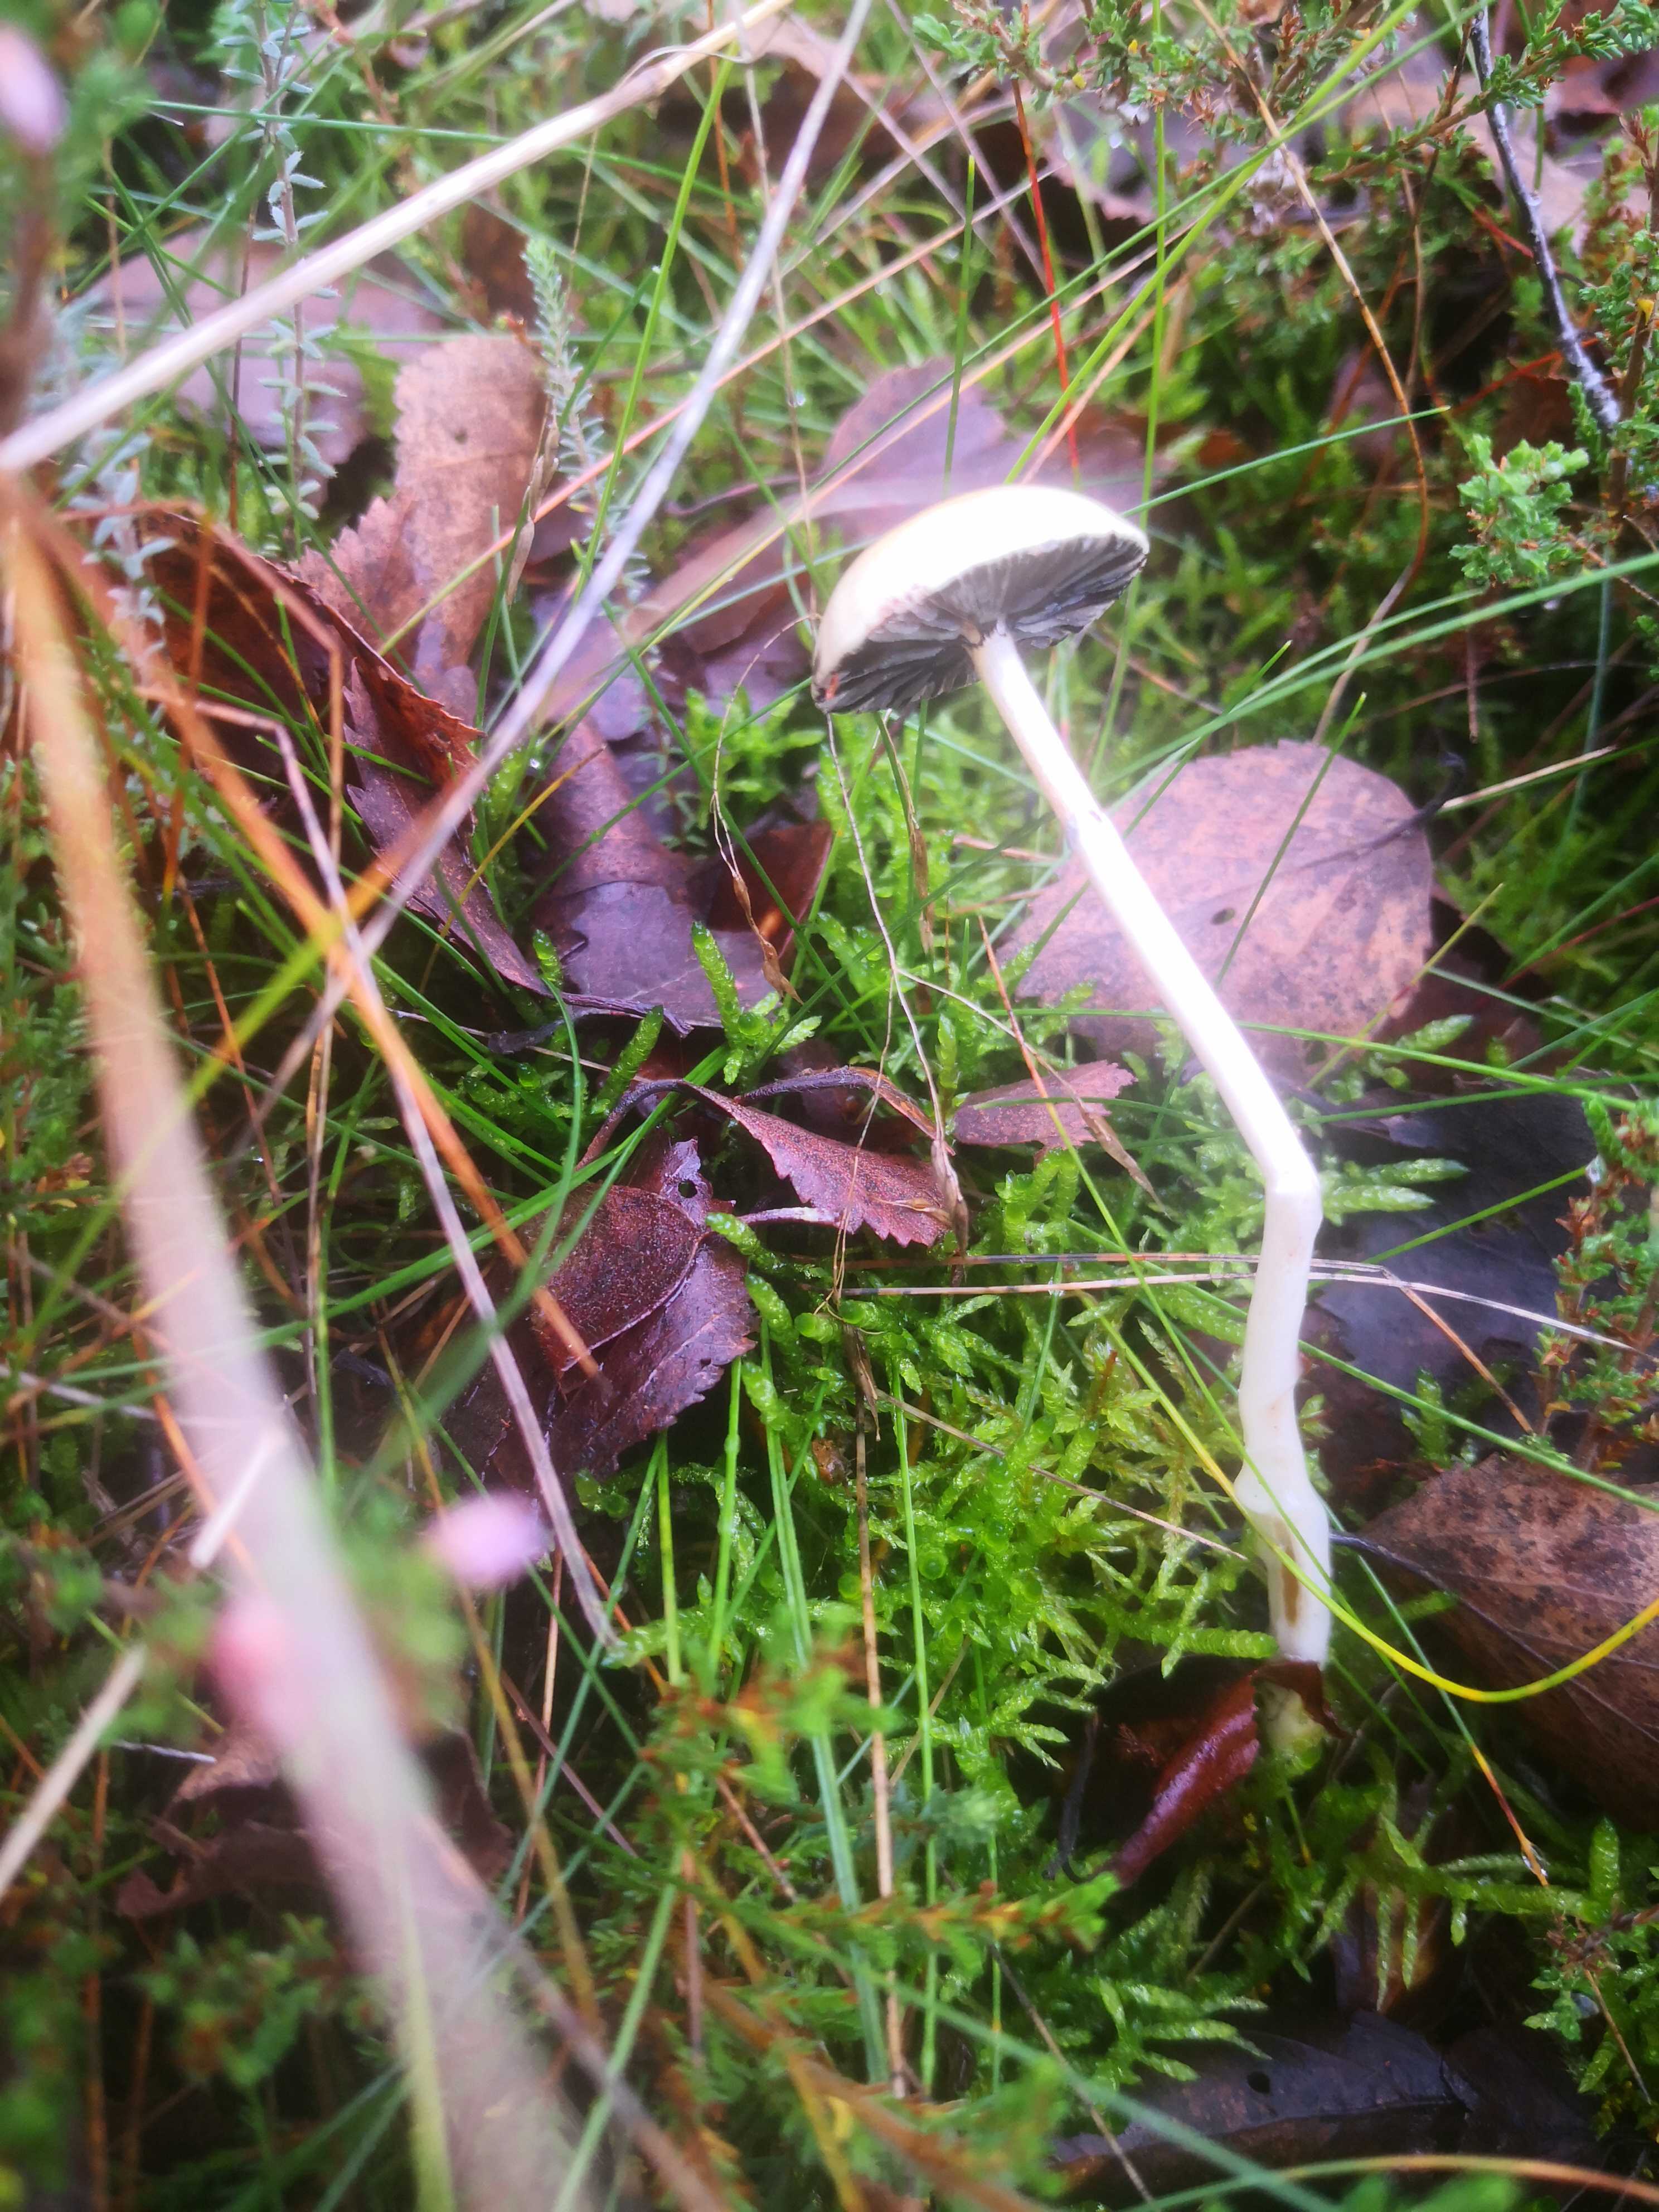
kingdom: Fungi
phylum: Basidiomycota
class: Agaricomycetes
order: Agaricales
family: Strophariaceae
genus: Protostropharia
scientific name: Protostropharia semiglobata
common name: halvkugleformet bredblad
